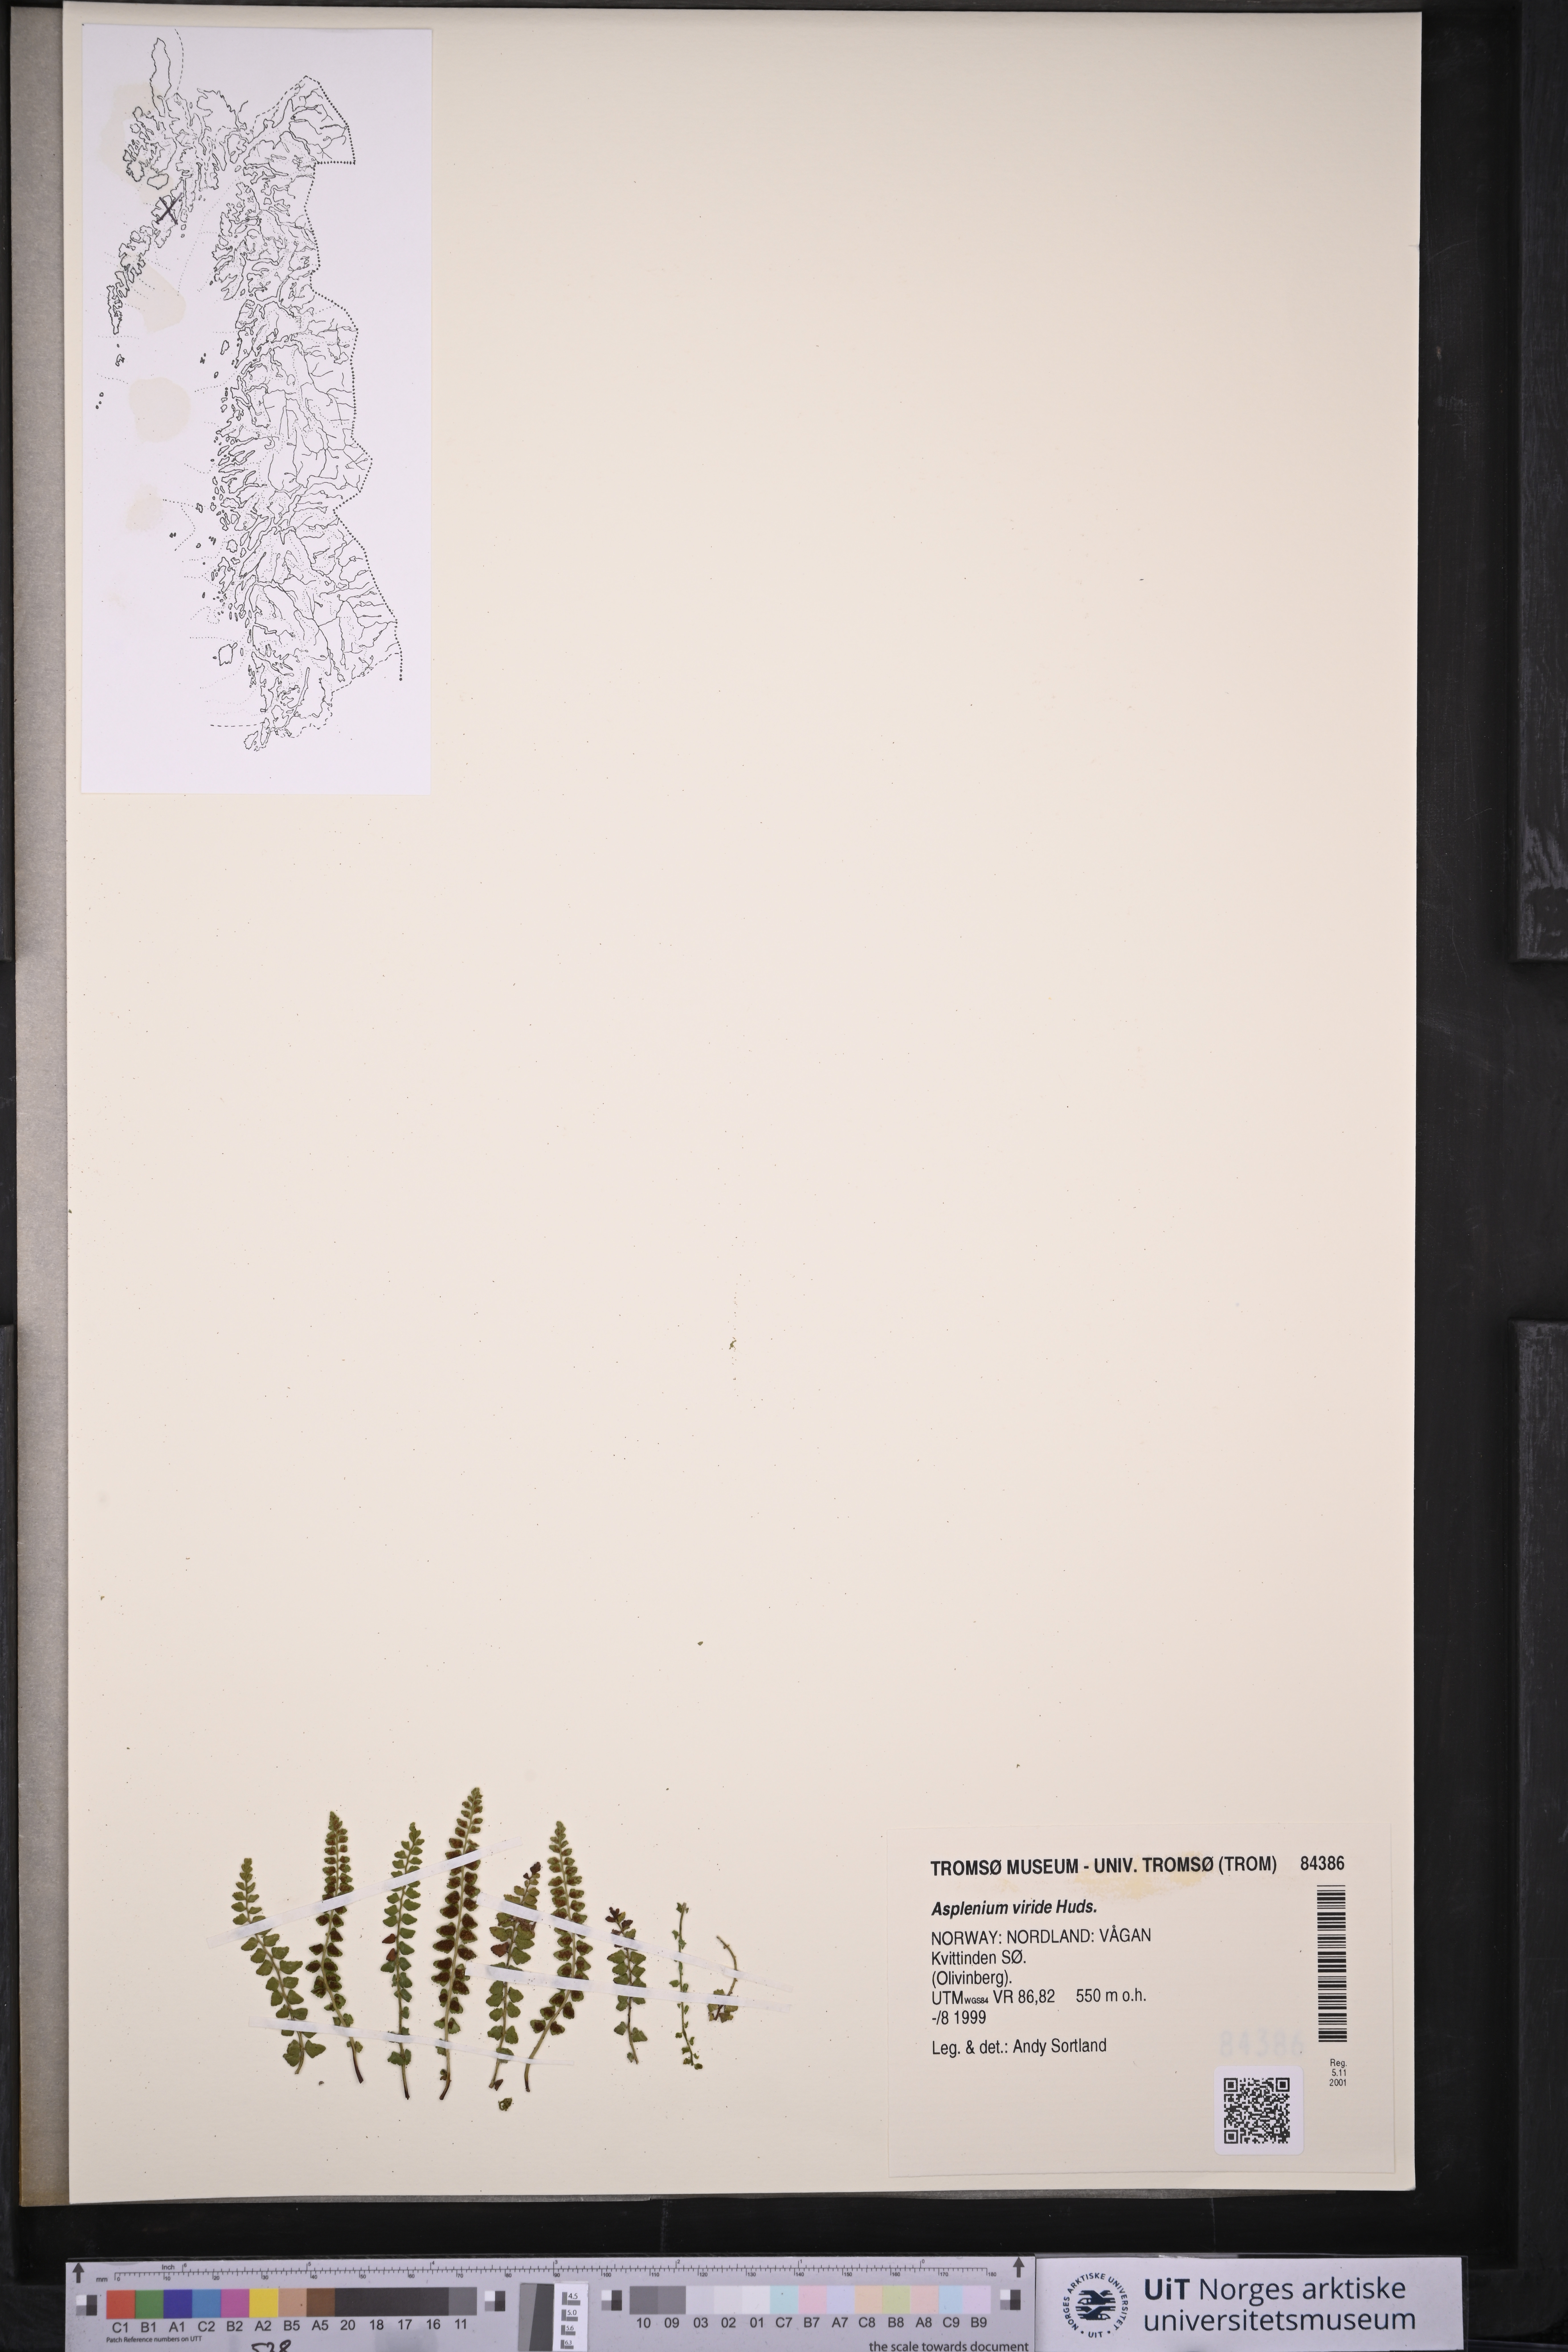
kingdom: Plantae
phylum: Tracheophyta
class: Polypodiopsida
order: Polypodiales
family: Aspleniaceae
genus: Asplenium
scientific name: Asplenium viride
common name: Green spleenwort
